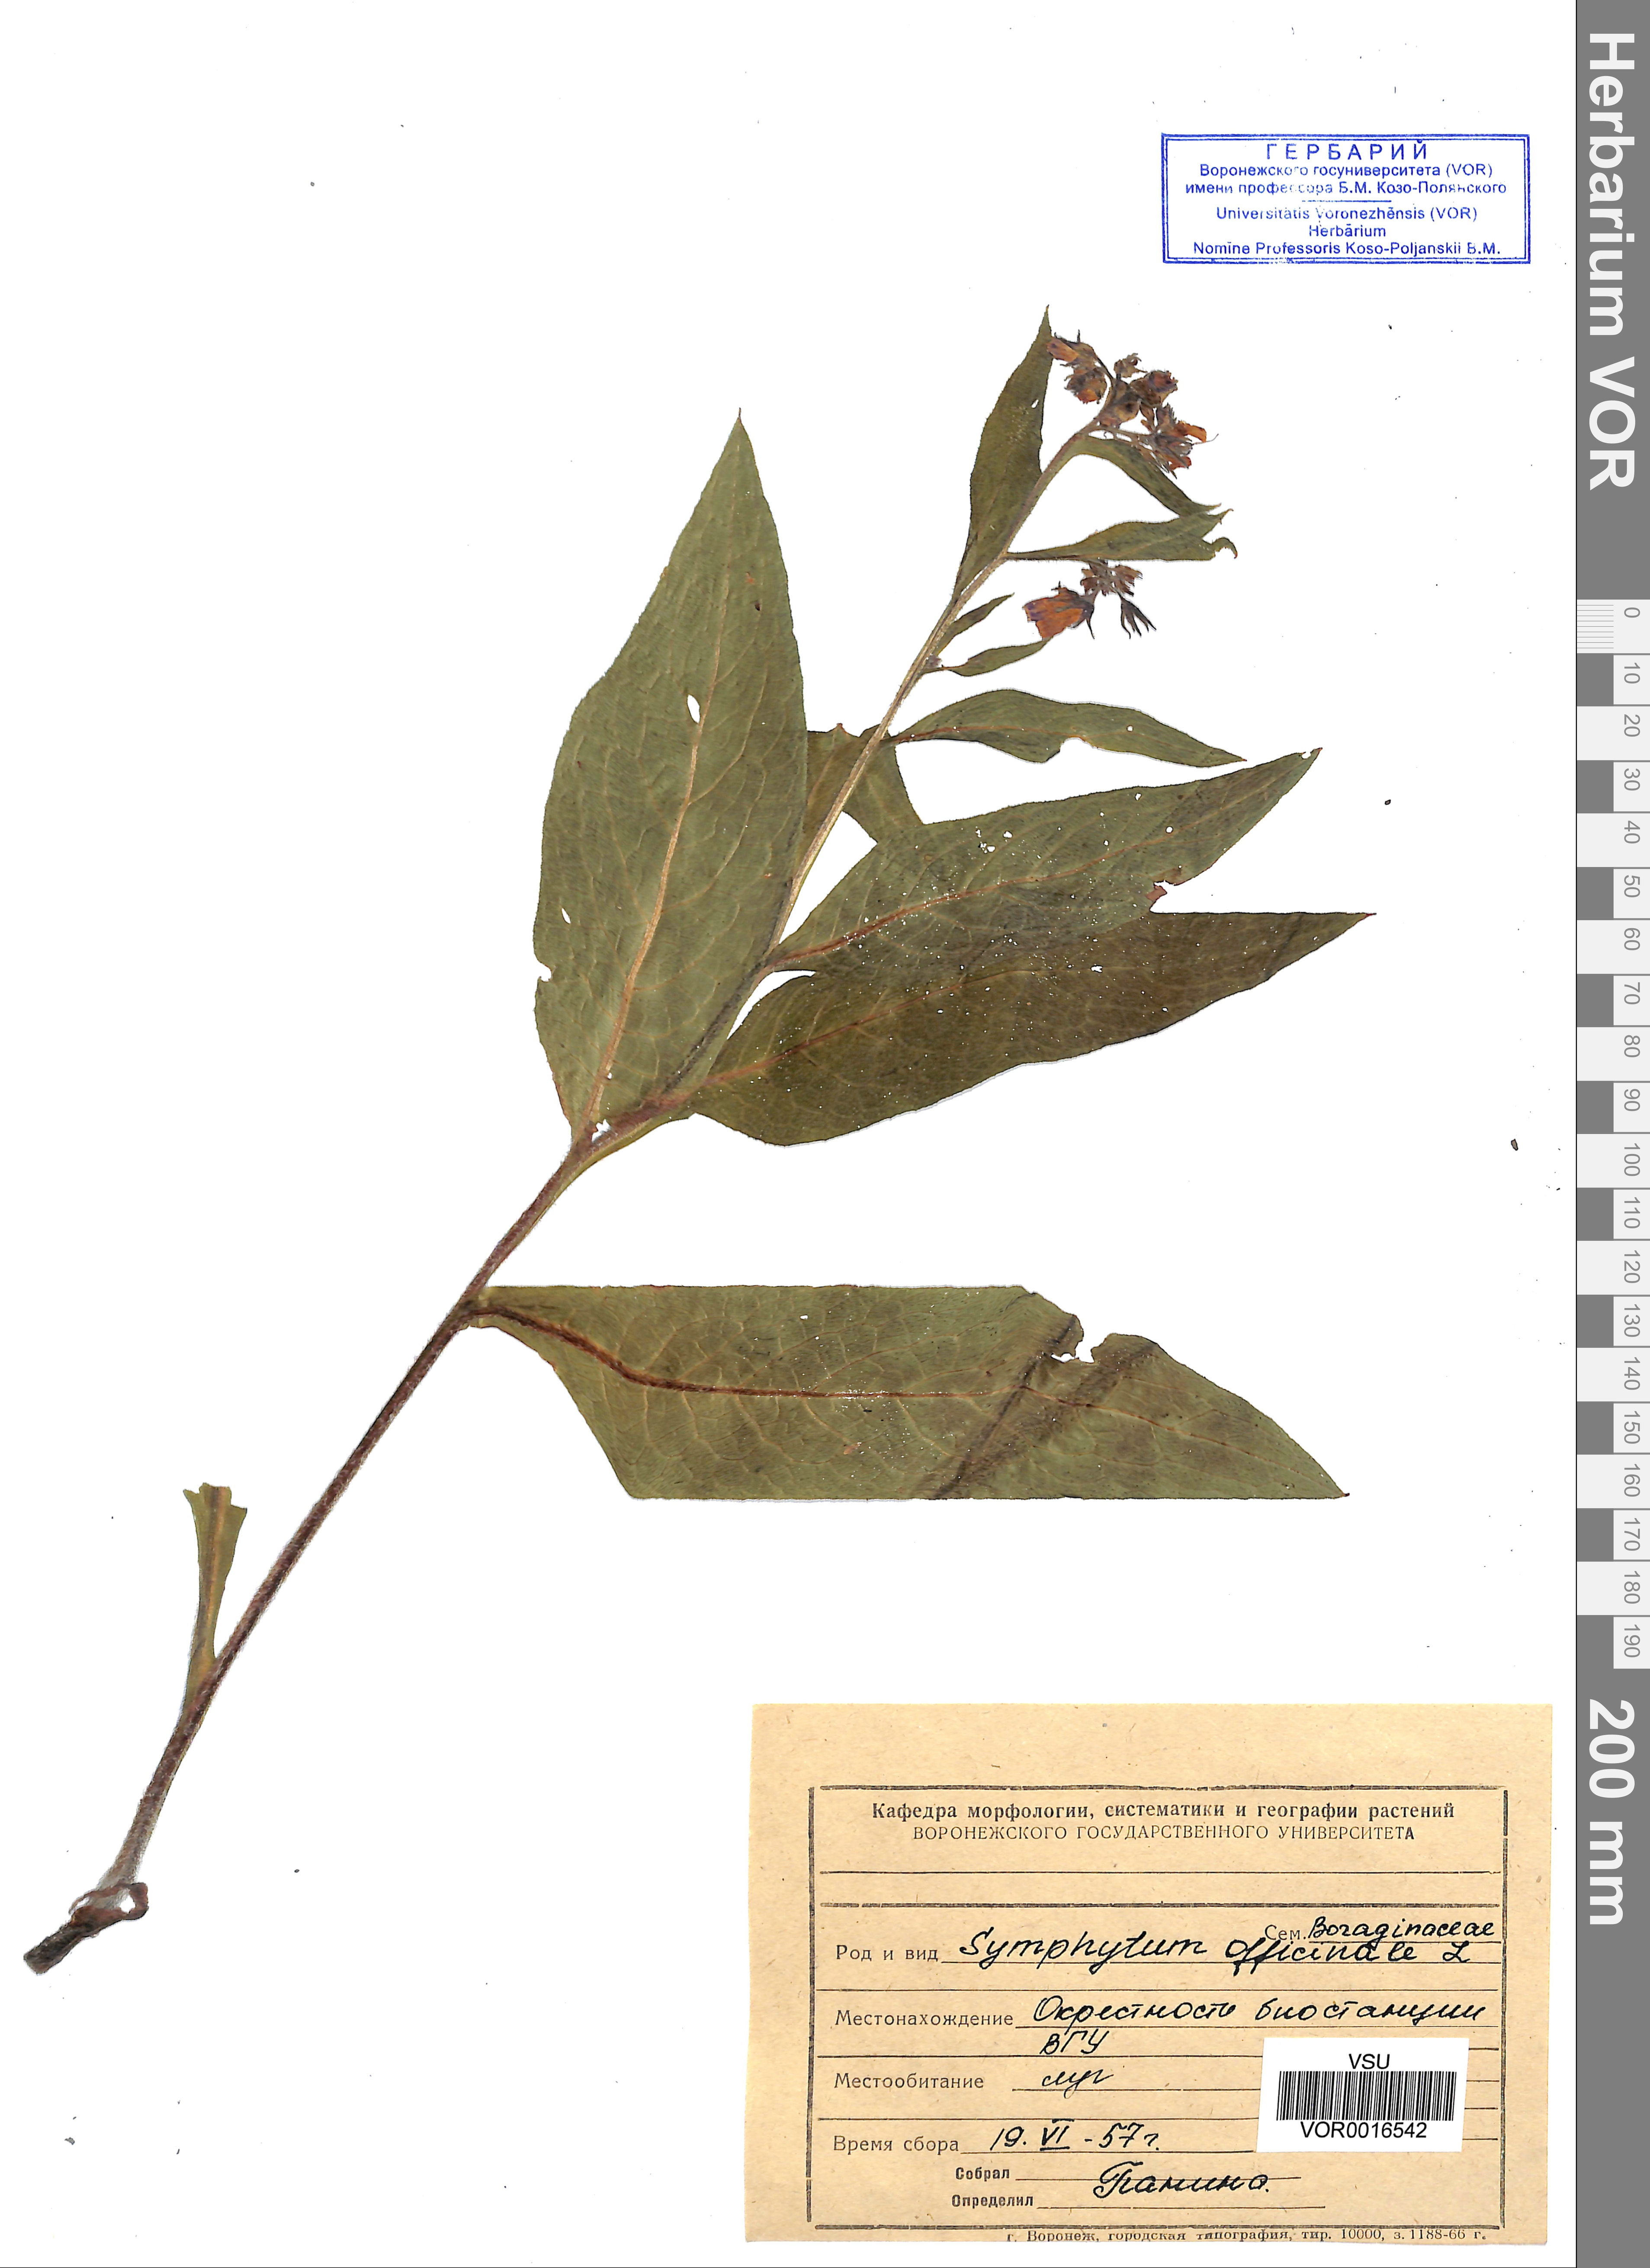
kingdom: Plantae
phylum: Tracheophyta
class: Magnoliopsida
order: Boraginales
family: Boraginaceae
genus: Symphytum
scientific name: Symphytum officinale
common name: Common comfrey
